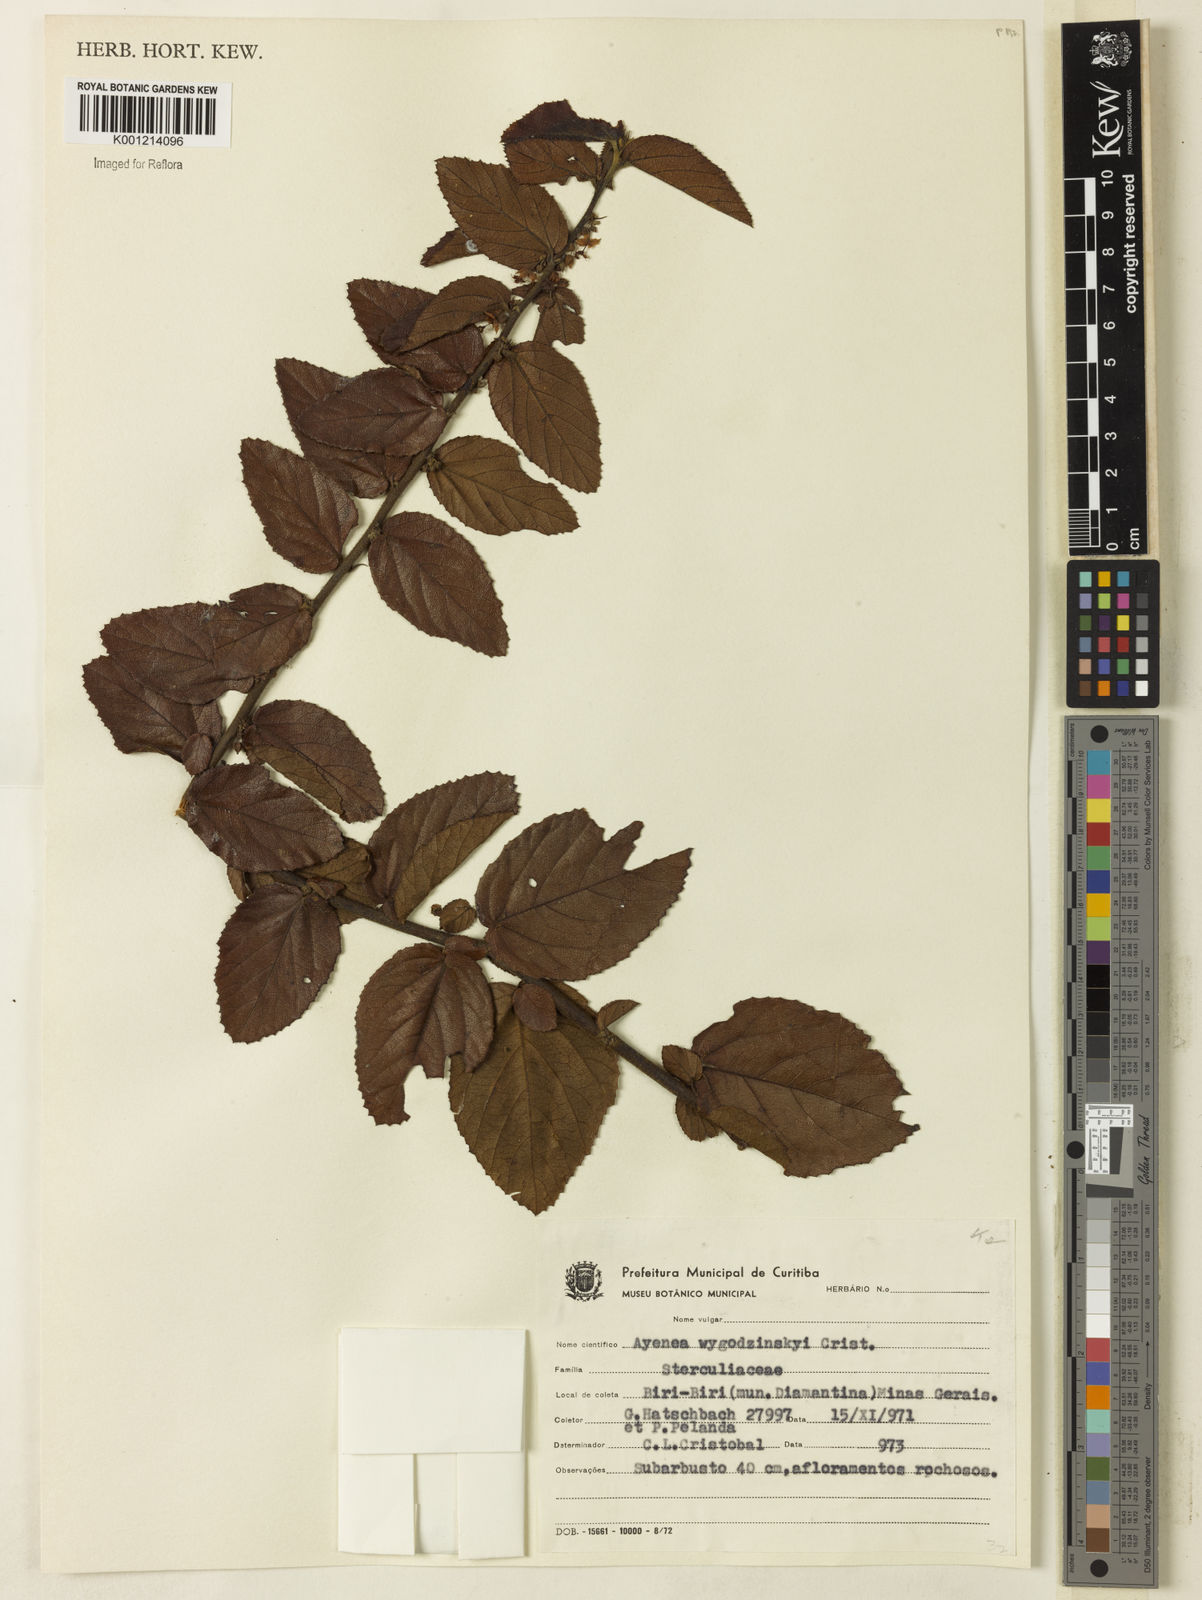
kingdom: Plantae
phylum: Tracheophyta
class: Magnoliopsida
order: Malvales
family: Malvaceae
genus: Ayenia
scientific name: Ayenia
